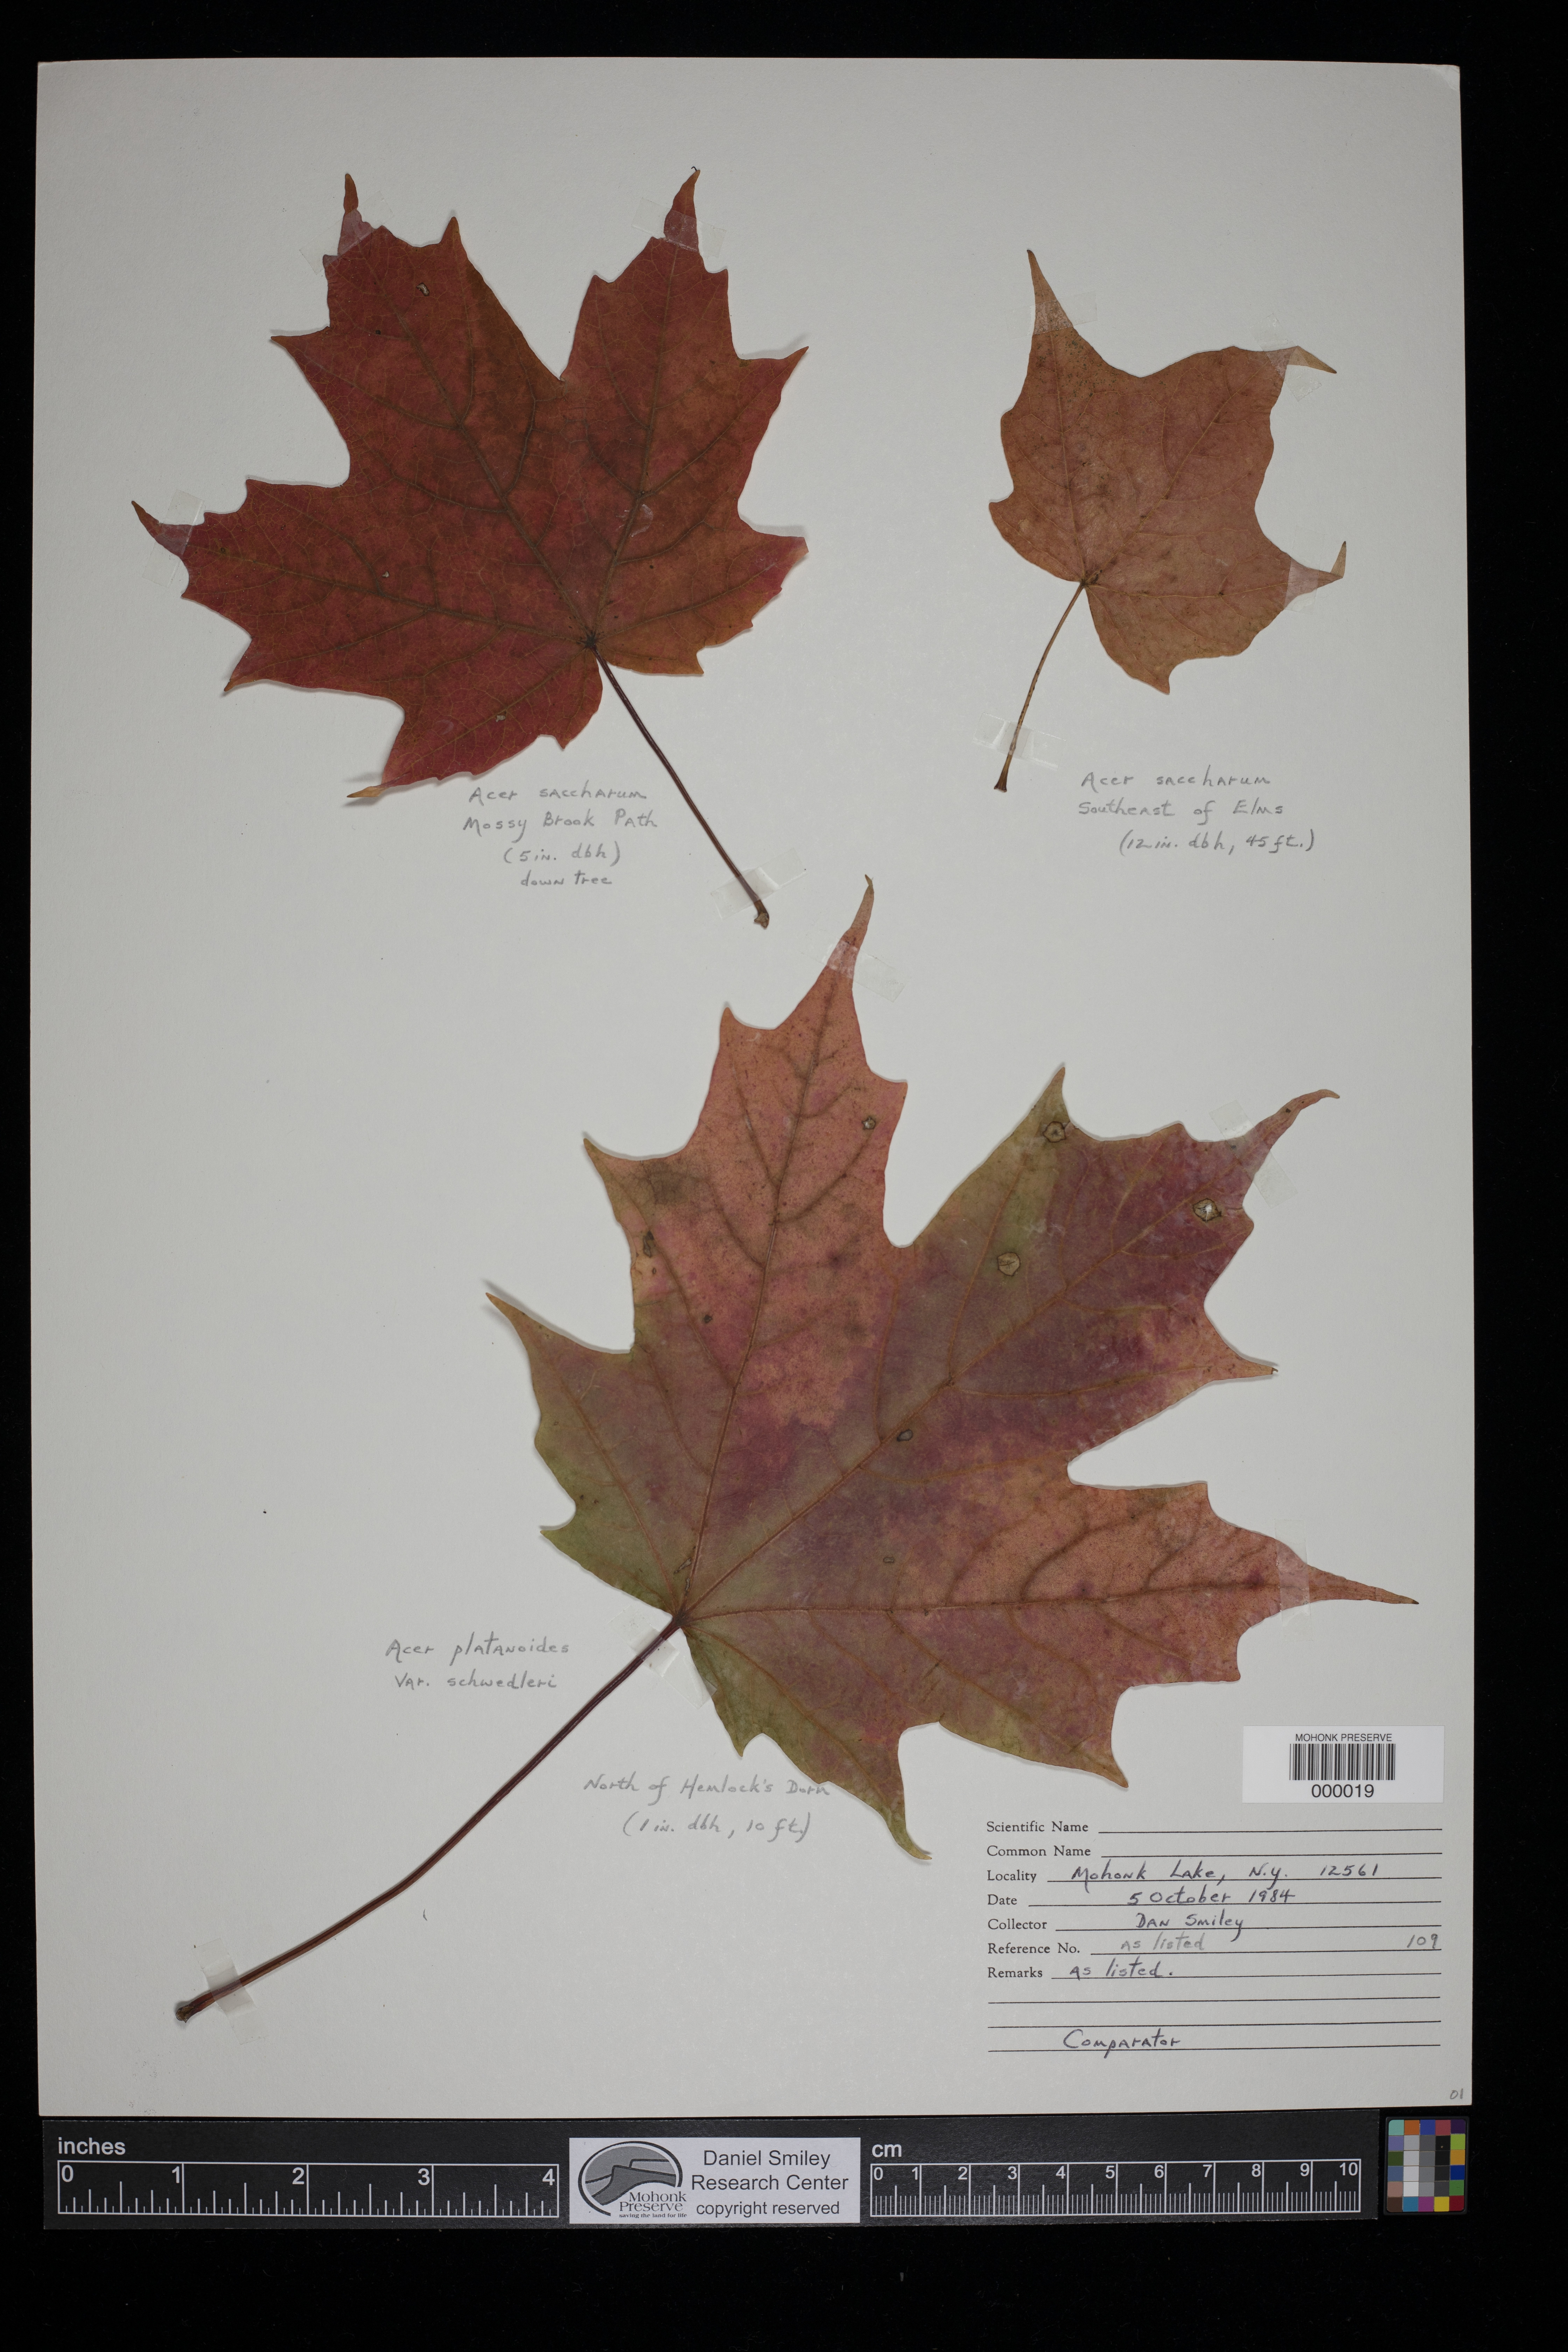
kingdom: Plantae
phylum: Tracheophyta
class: Magnoliopsida
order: Sapindales
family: Sapindaceae
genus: Acer
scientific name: Acer platanoides
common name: Norway maple
